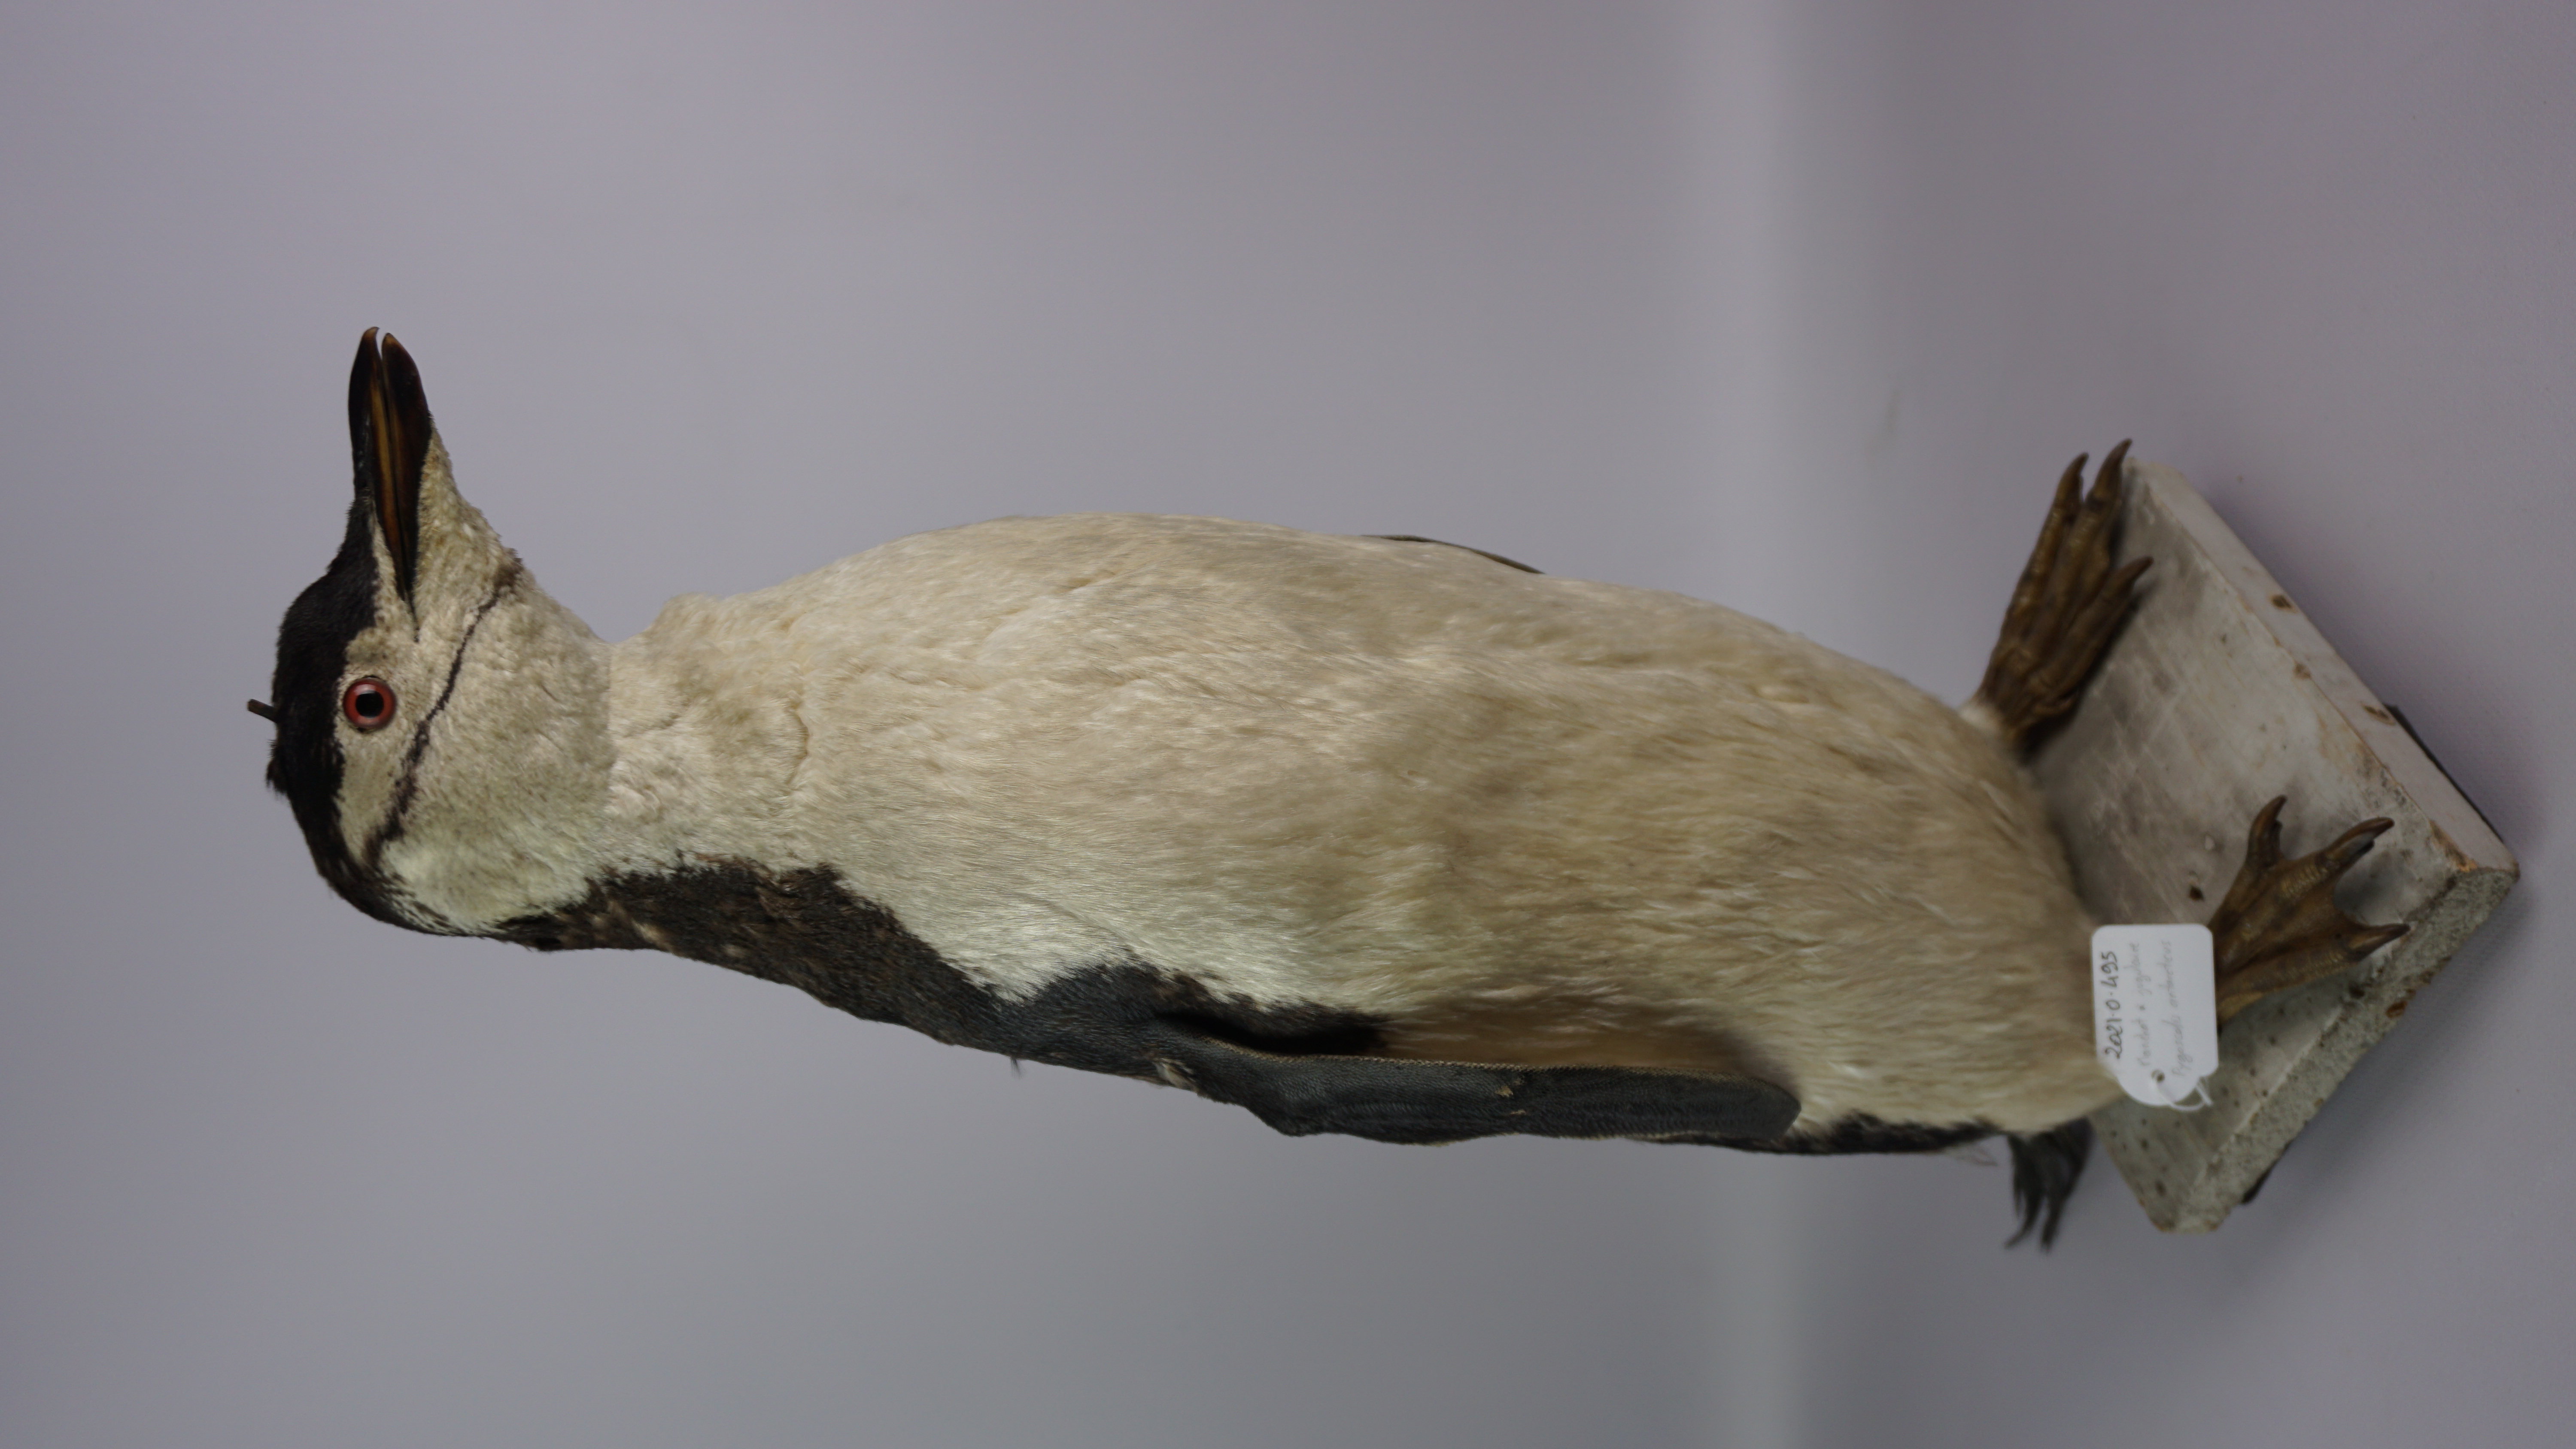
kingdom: Animalia
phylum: Chordata
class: Aves
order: Sphenisciformes
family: Spheniscidae
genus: Pygoscelis
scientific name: Pygoscelis antarcticus
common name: Chinstrap penguin
